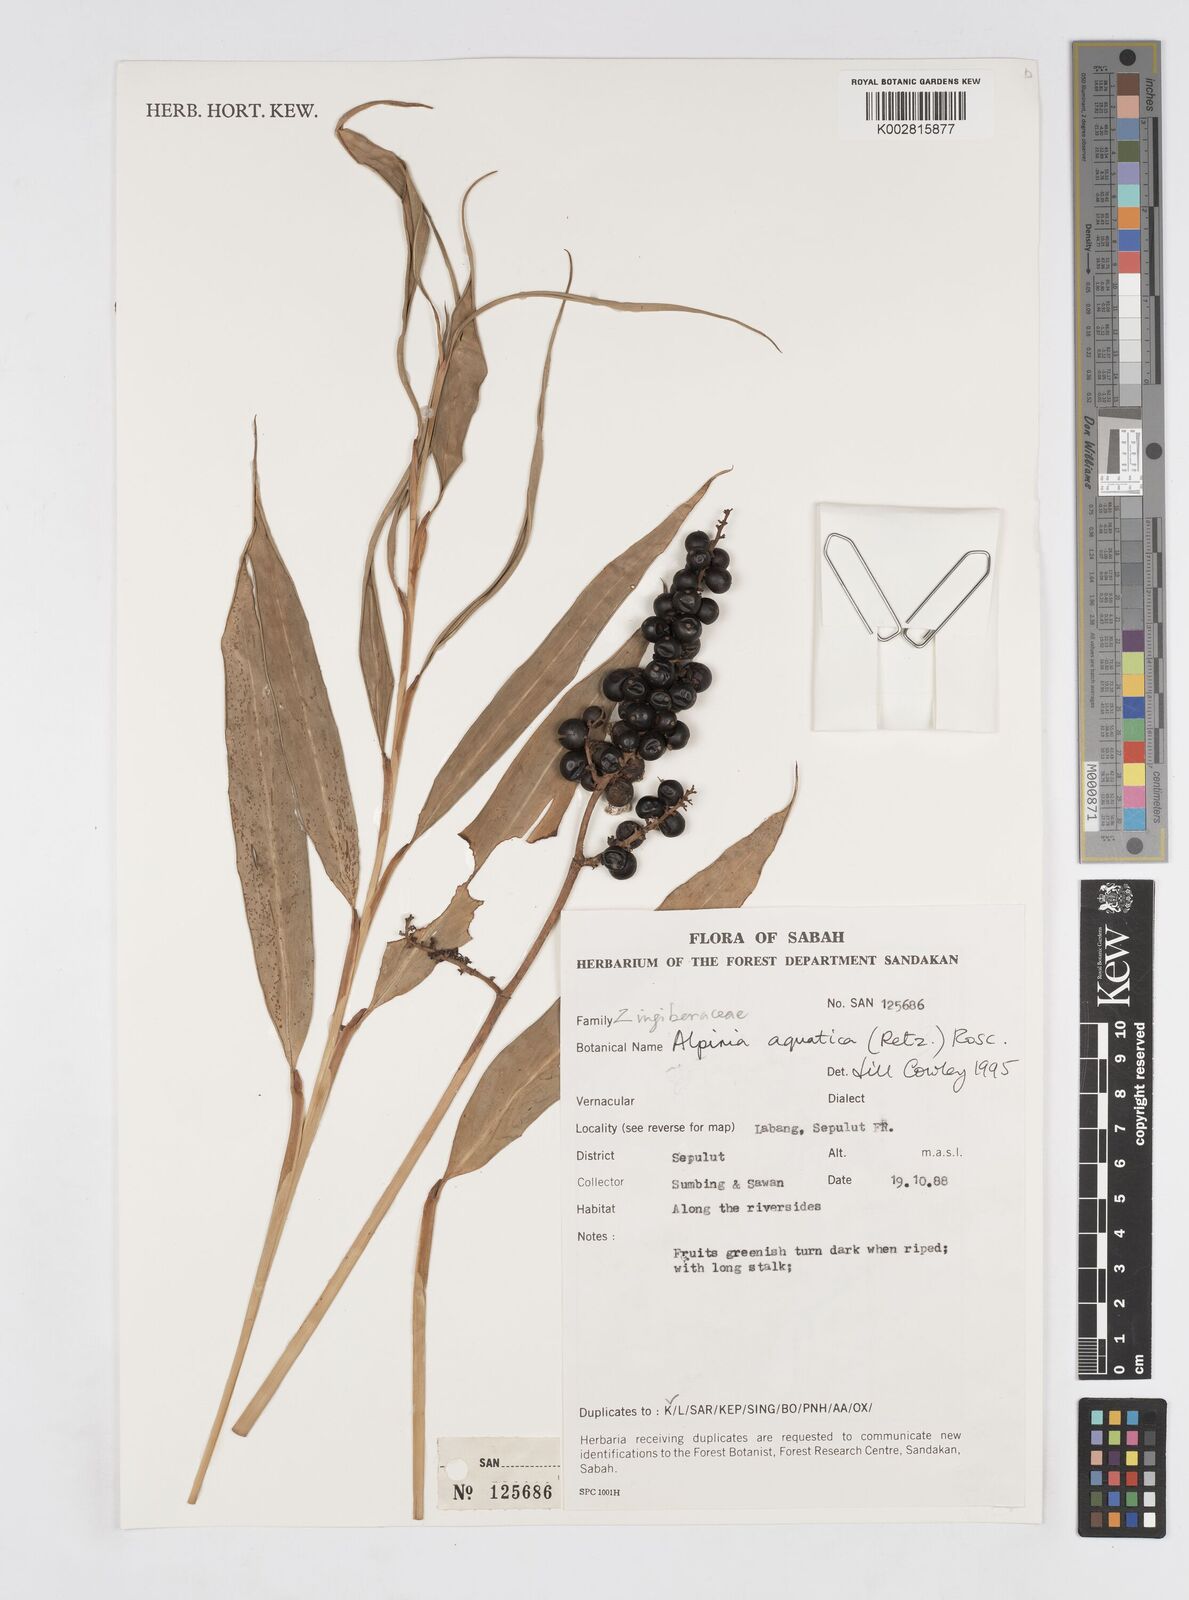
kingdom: Plantae
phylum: Tracheophyta
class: Liliopsida
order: Zingiberales
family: Zingiberaceae
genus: Alpinia
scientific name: Alpinia aquatica
